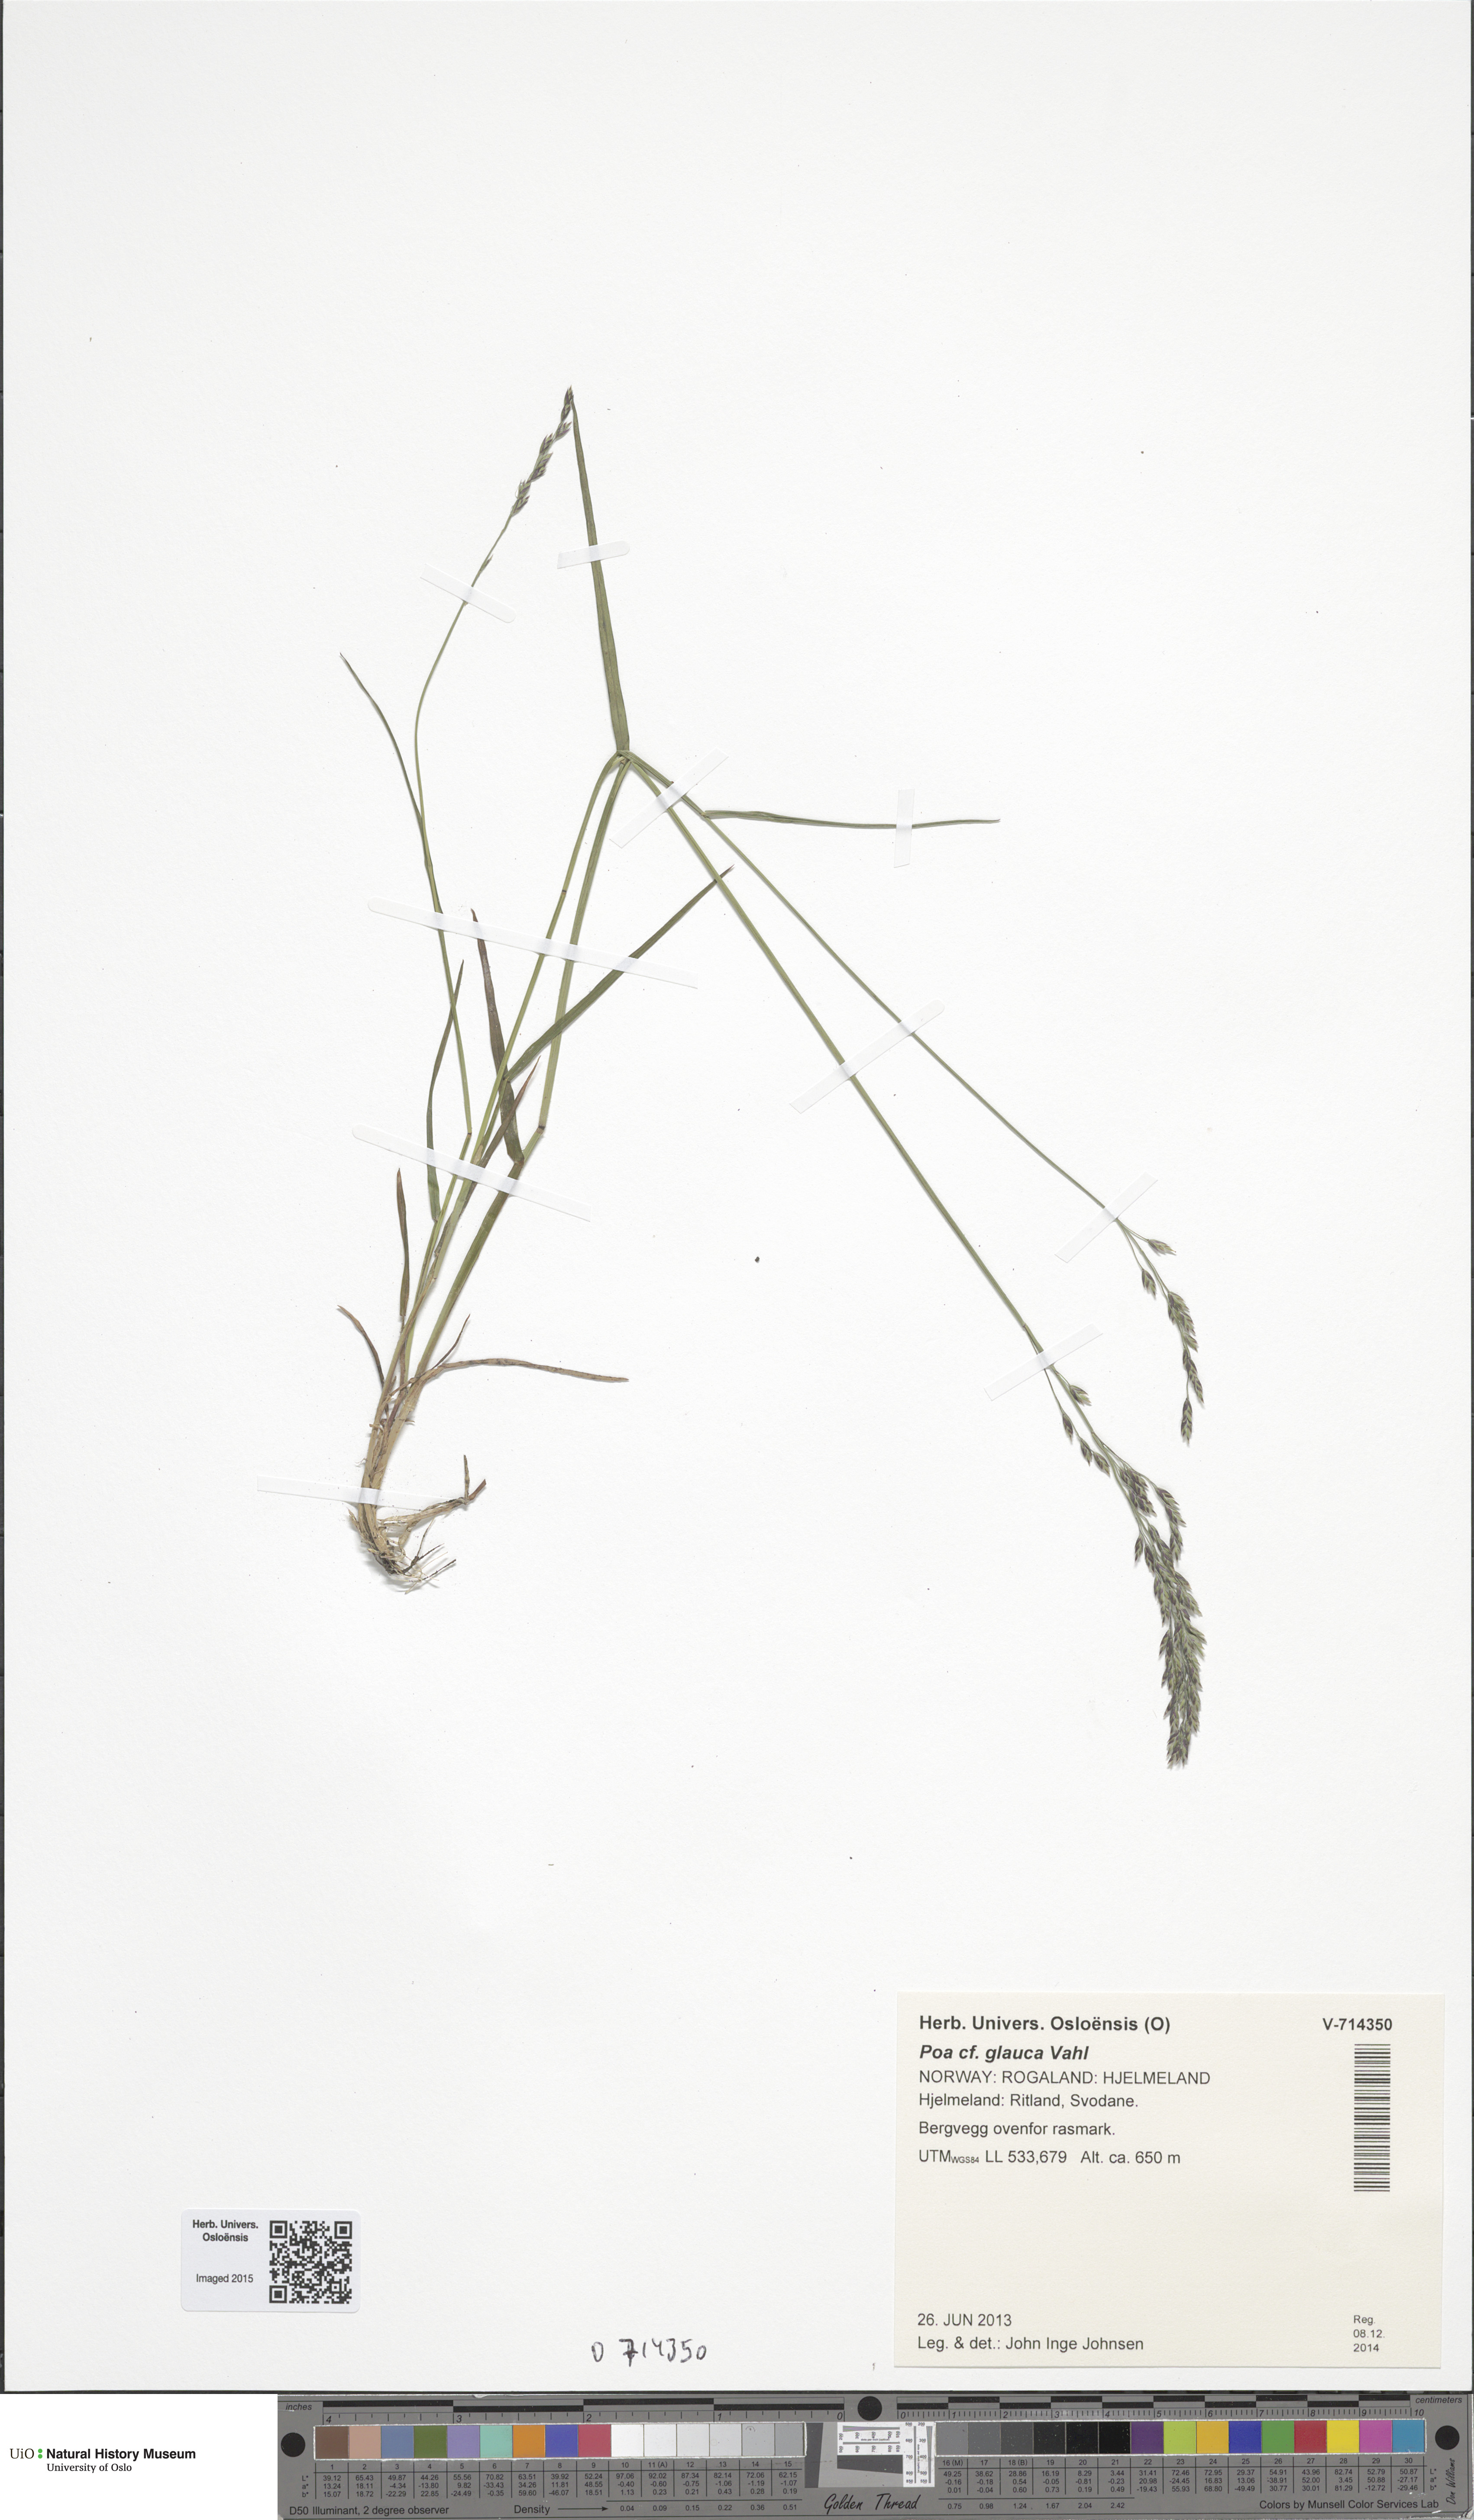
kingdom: Plantae
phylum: Tracheophyta
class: Liliopsida
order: Poales
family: Poaceae
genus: Poa
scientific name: Poa glauca
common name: Glaucous bluegrass
